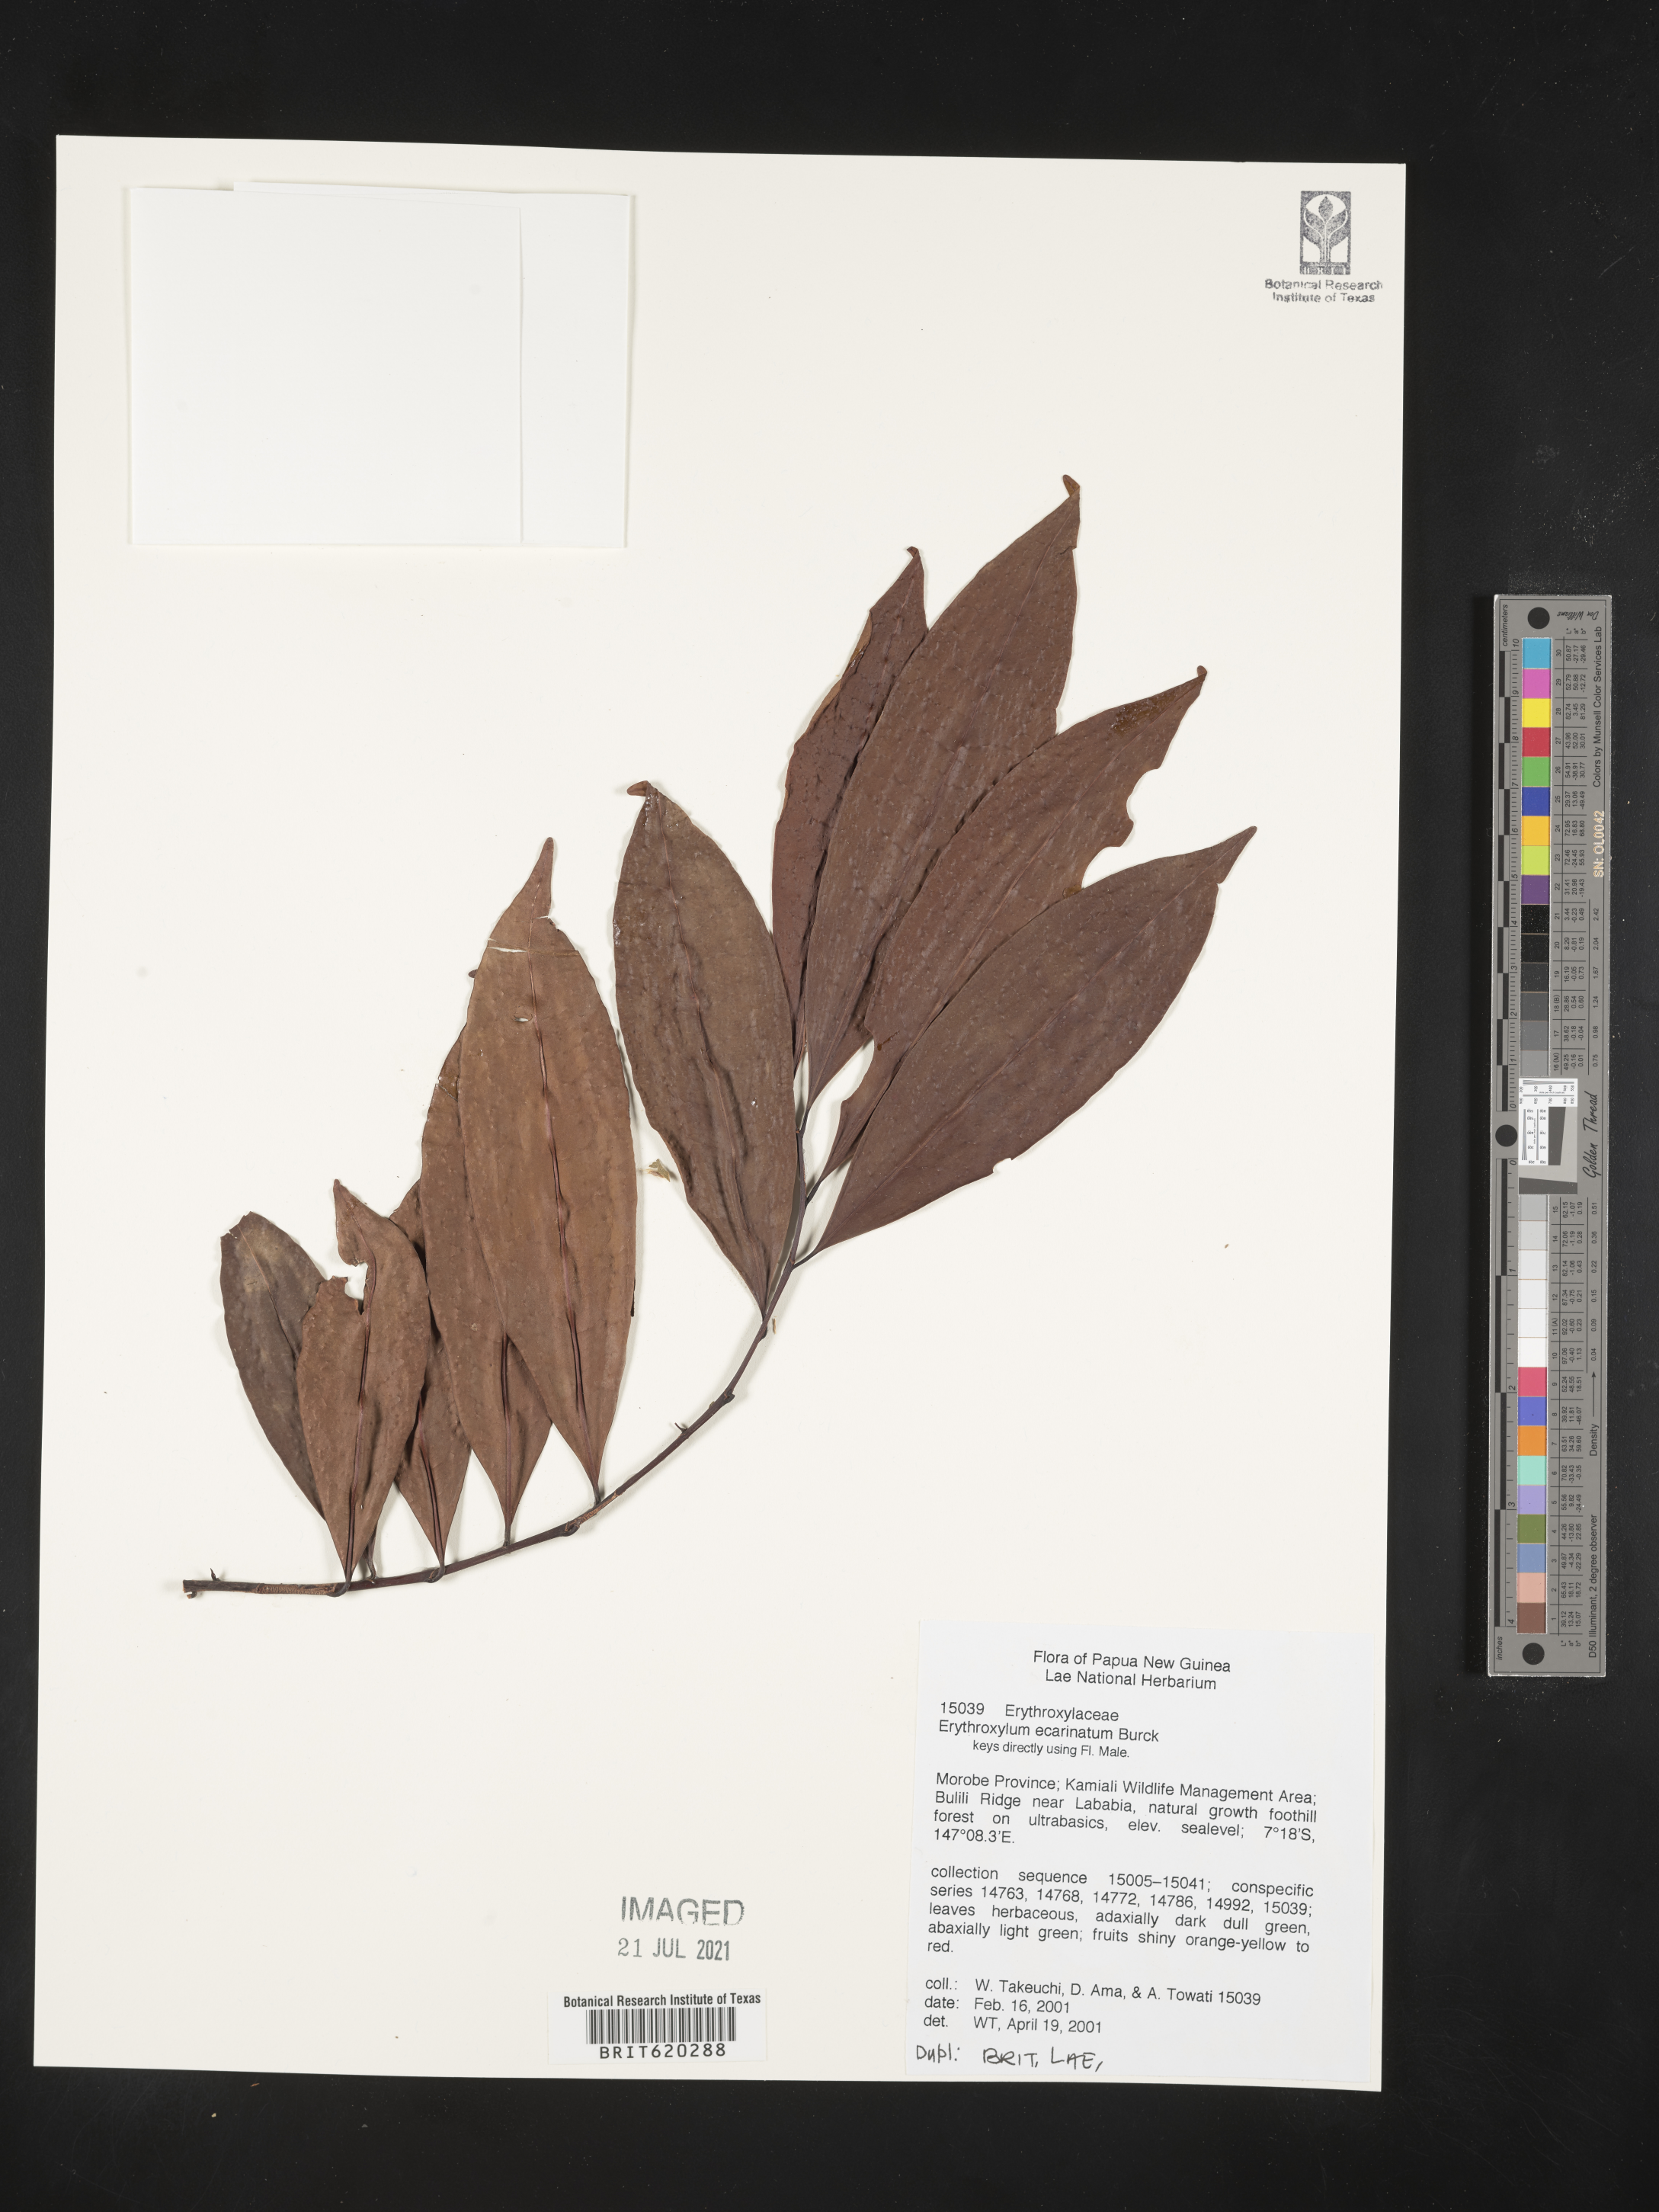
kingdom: Plantae
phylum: Tracheophyta
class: Magnoliopsida
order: Malpighiales
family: Erythroxylaceae
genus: Erythroxylum
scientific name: Erythroxylum ecarinatum
